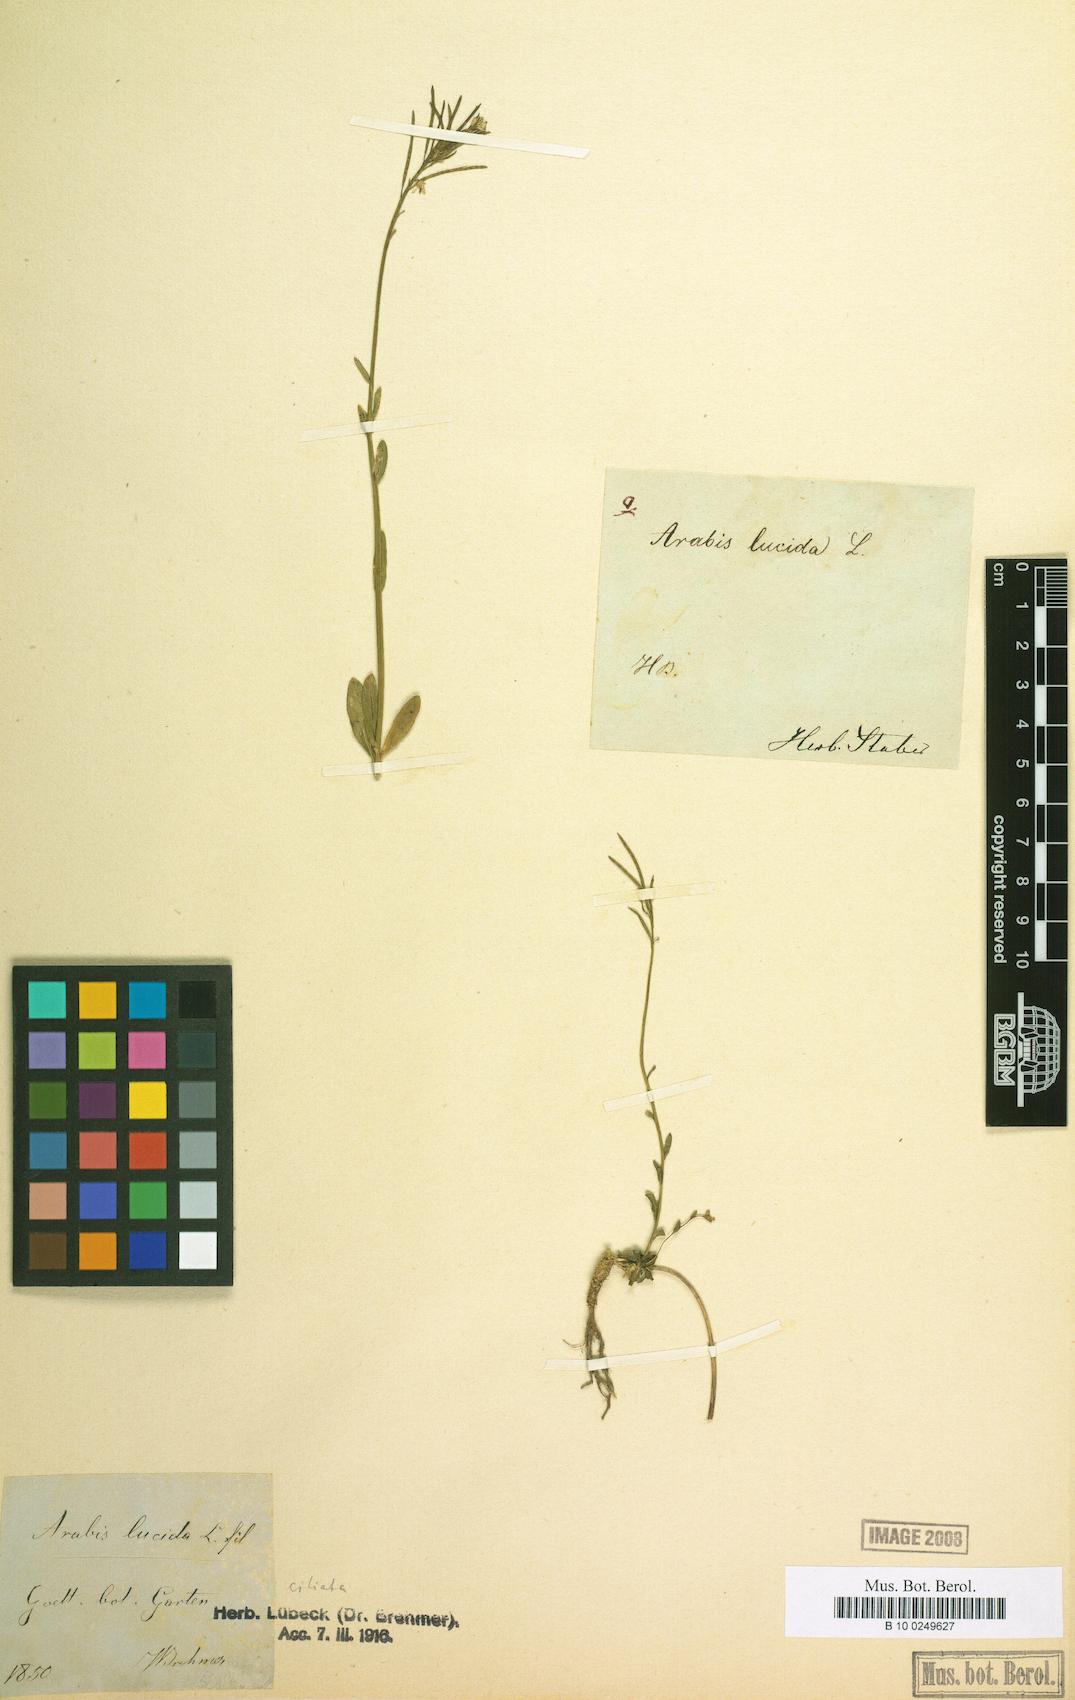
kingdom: Plantae
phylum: Tracheophyta
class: Magnoliopsida
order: Brassicales
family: Brassicaceae
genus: Arabis
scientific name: Arabis lucida
